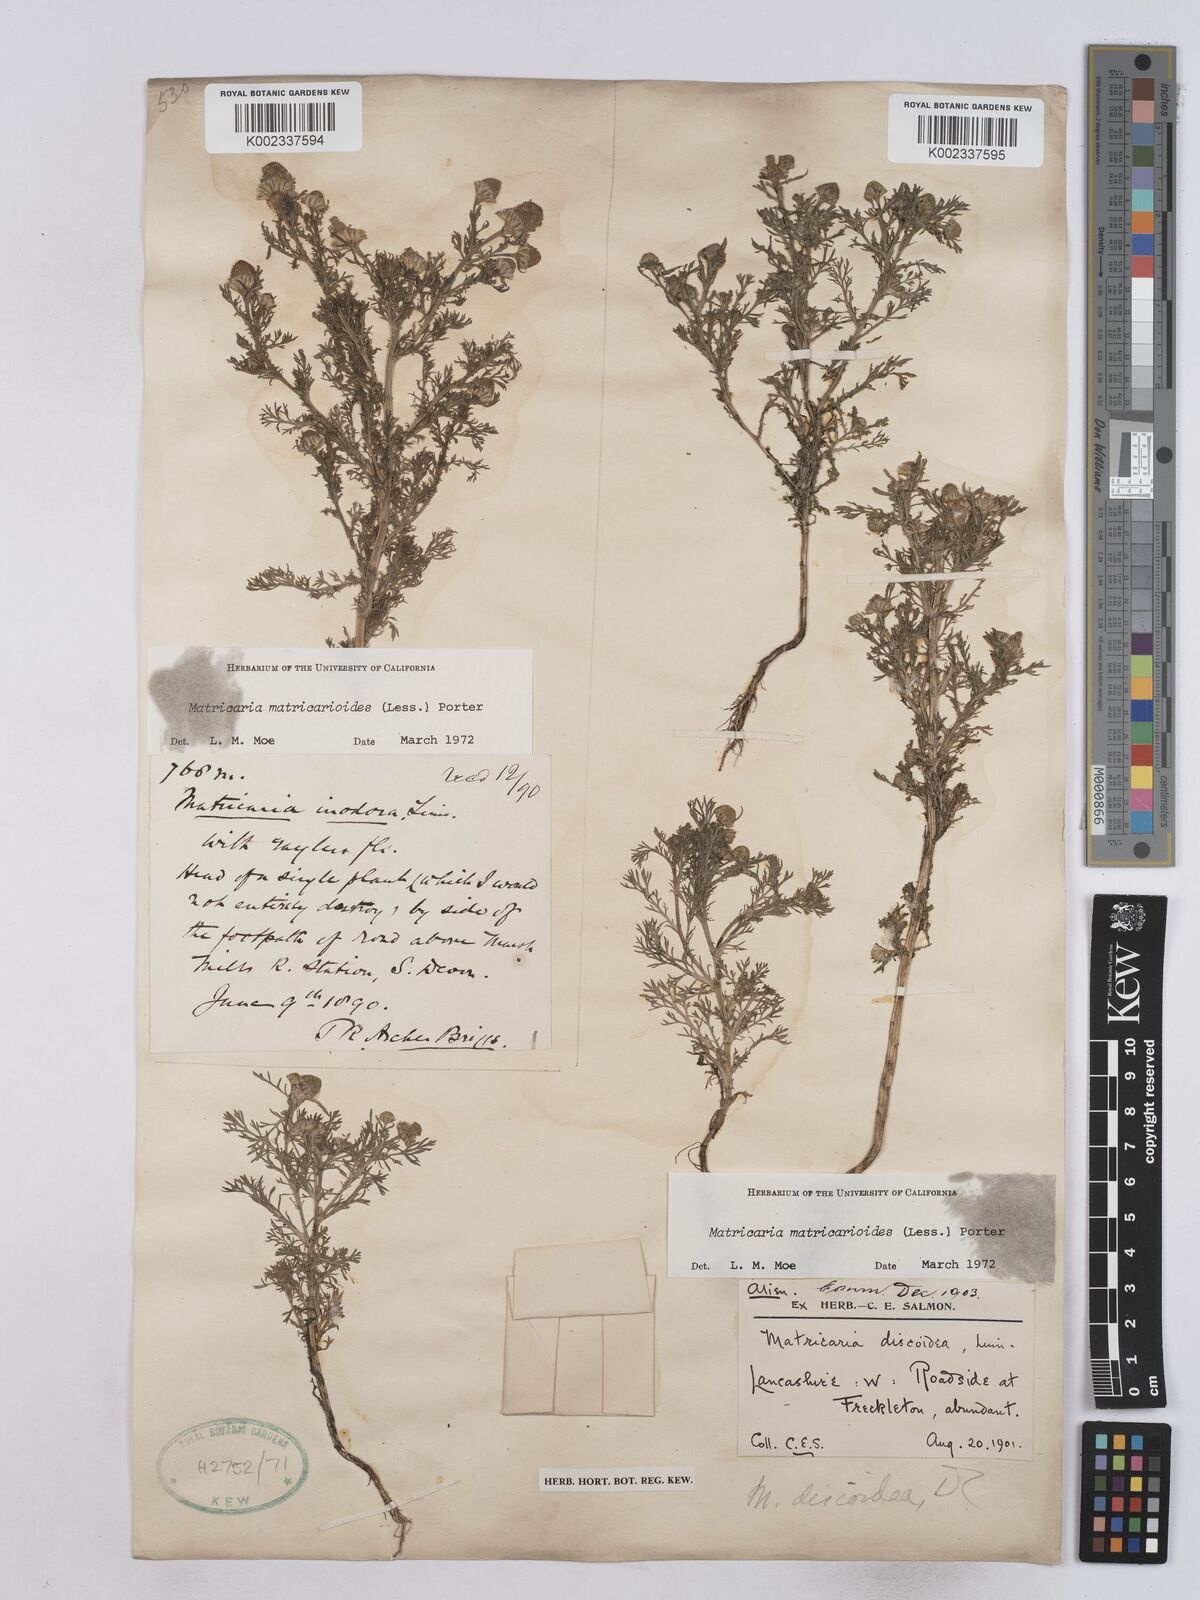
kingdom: Plantae
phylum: Tracheophyta
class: Magnoliopsida
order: Asterales
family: Asteraceae
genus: Matricaria
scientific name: Matricaria discoidea
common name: Disc mayweed
